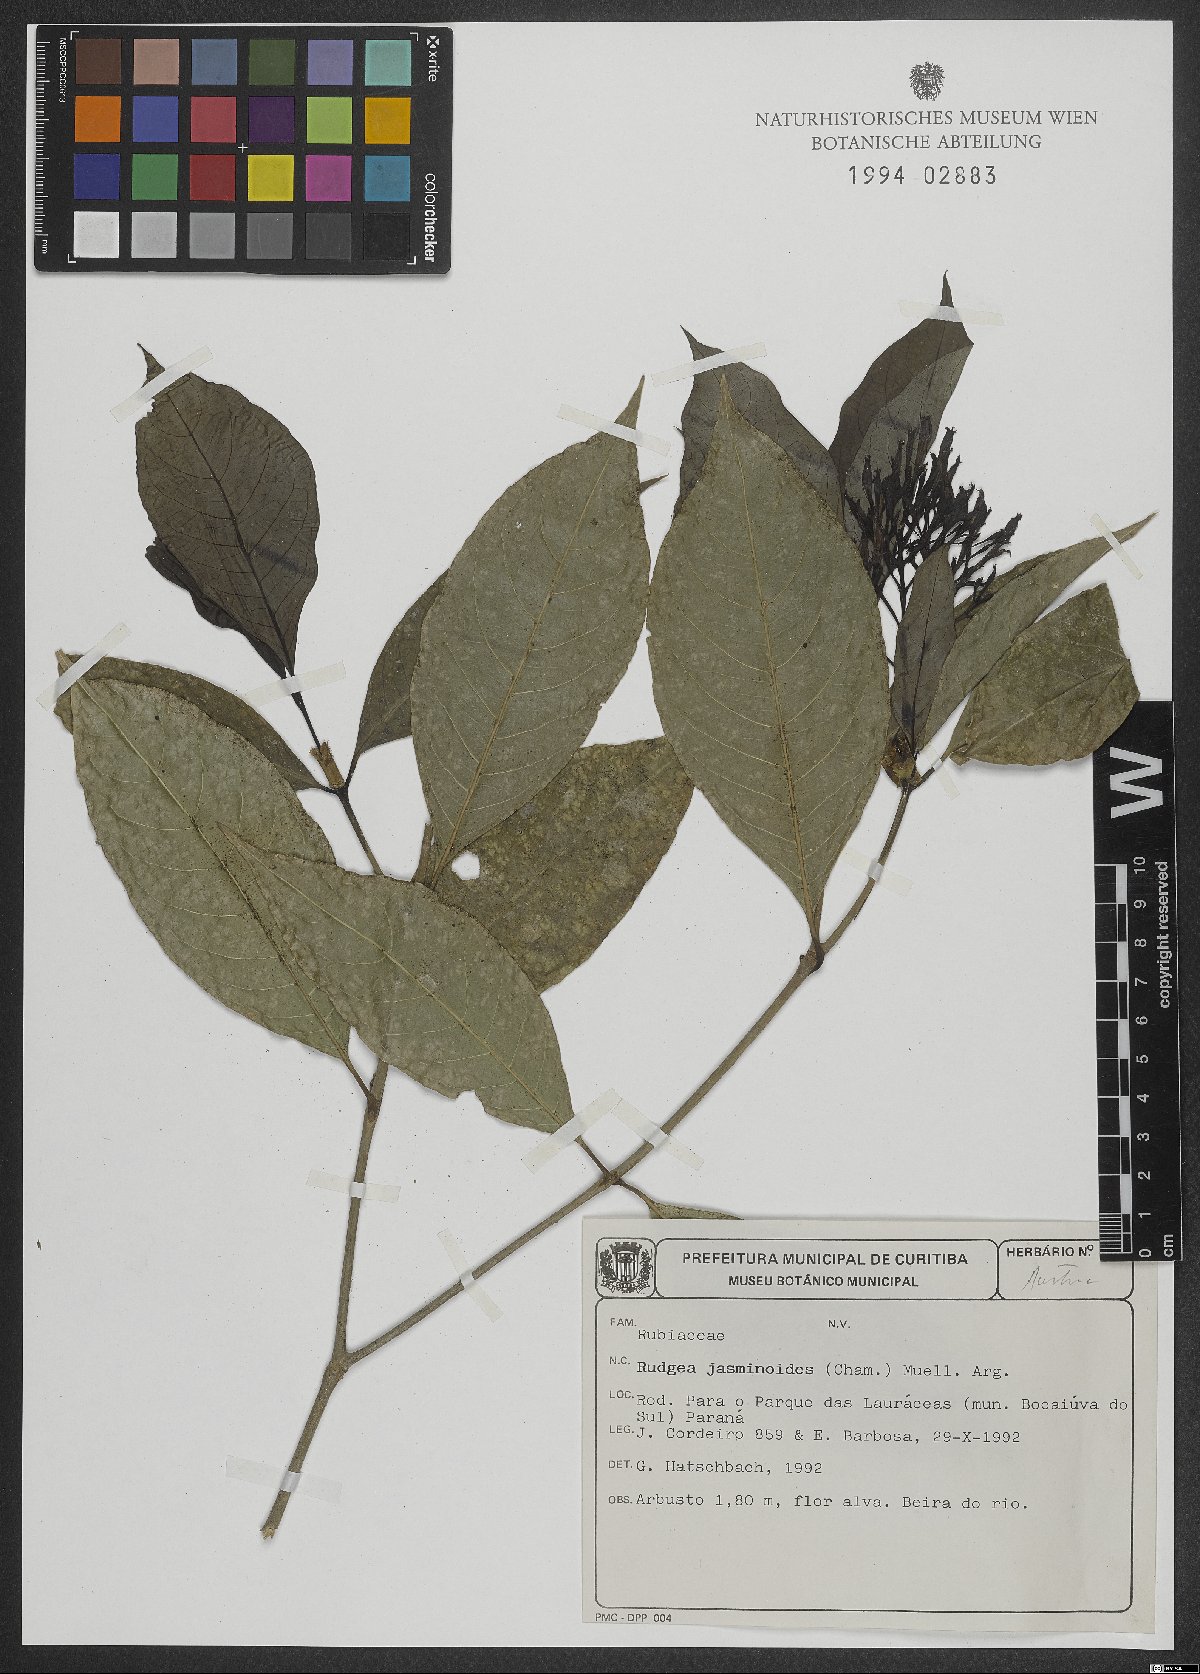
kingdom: Plantae
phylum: Tracheophyta
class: Magnoliopsida
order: Gentianales
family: Rubiaceae
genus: Rudgea
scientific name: Rudgea jasminoides
